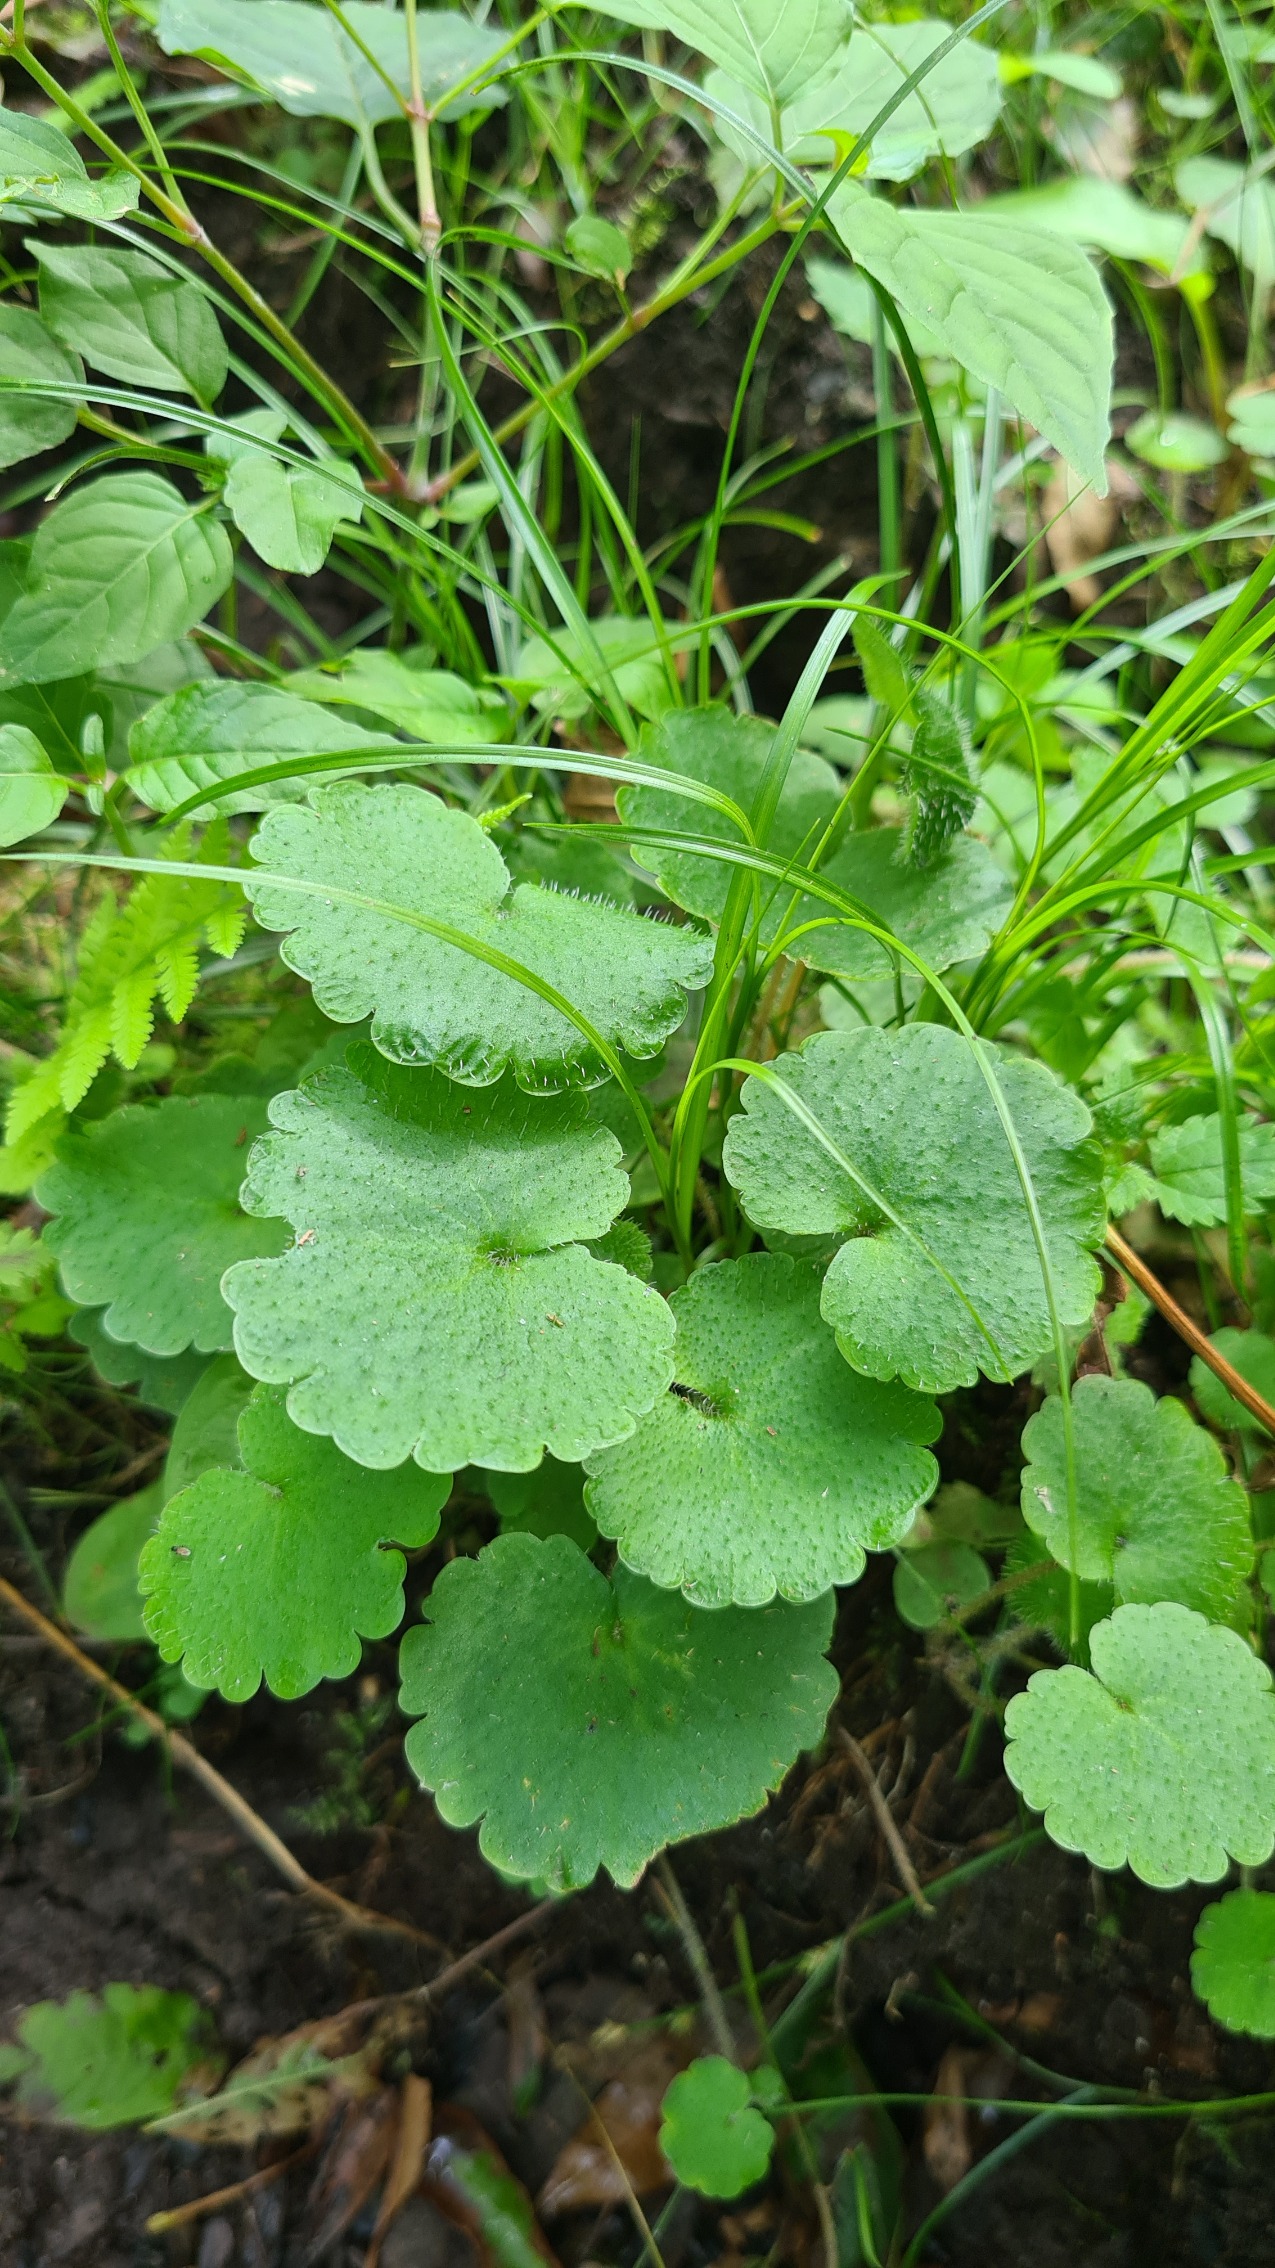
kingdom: Plantae
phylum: Tracheophyta
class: Magnoliopsida
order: Saxifragales
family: Saxifragaceae
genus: Chrysosplenium
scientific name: Chrysosplenium alternifolium
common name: Almindelig milturt
